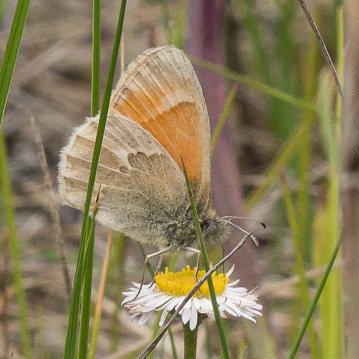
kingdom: Animalia
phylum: Arthropoda
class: Insecta
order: Lepidoptera
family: Nymphalidae
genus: Coenonympha
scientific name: Coenonympha tullia
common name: Large Heath
